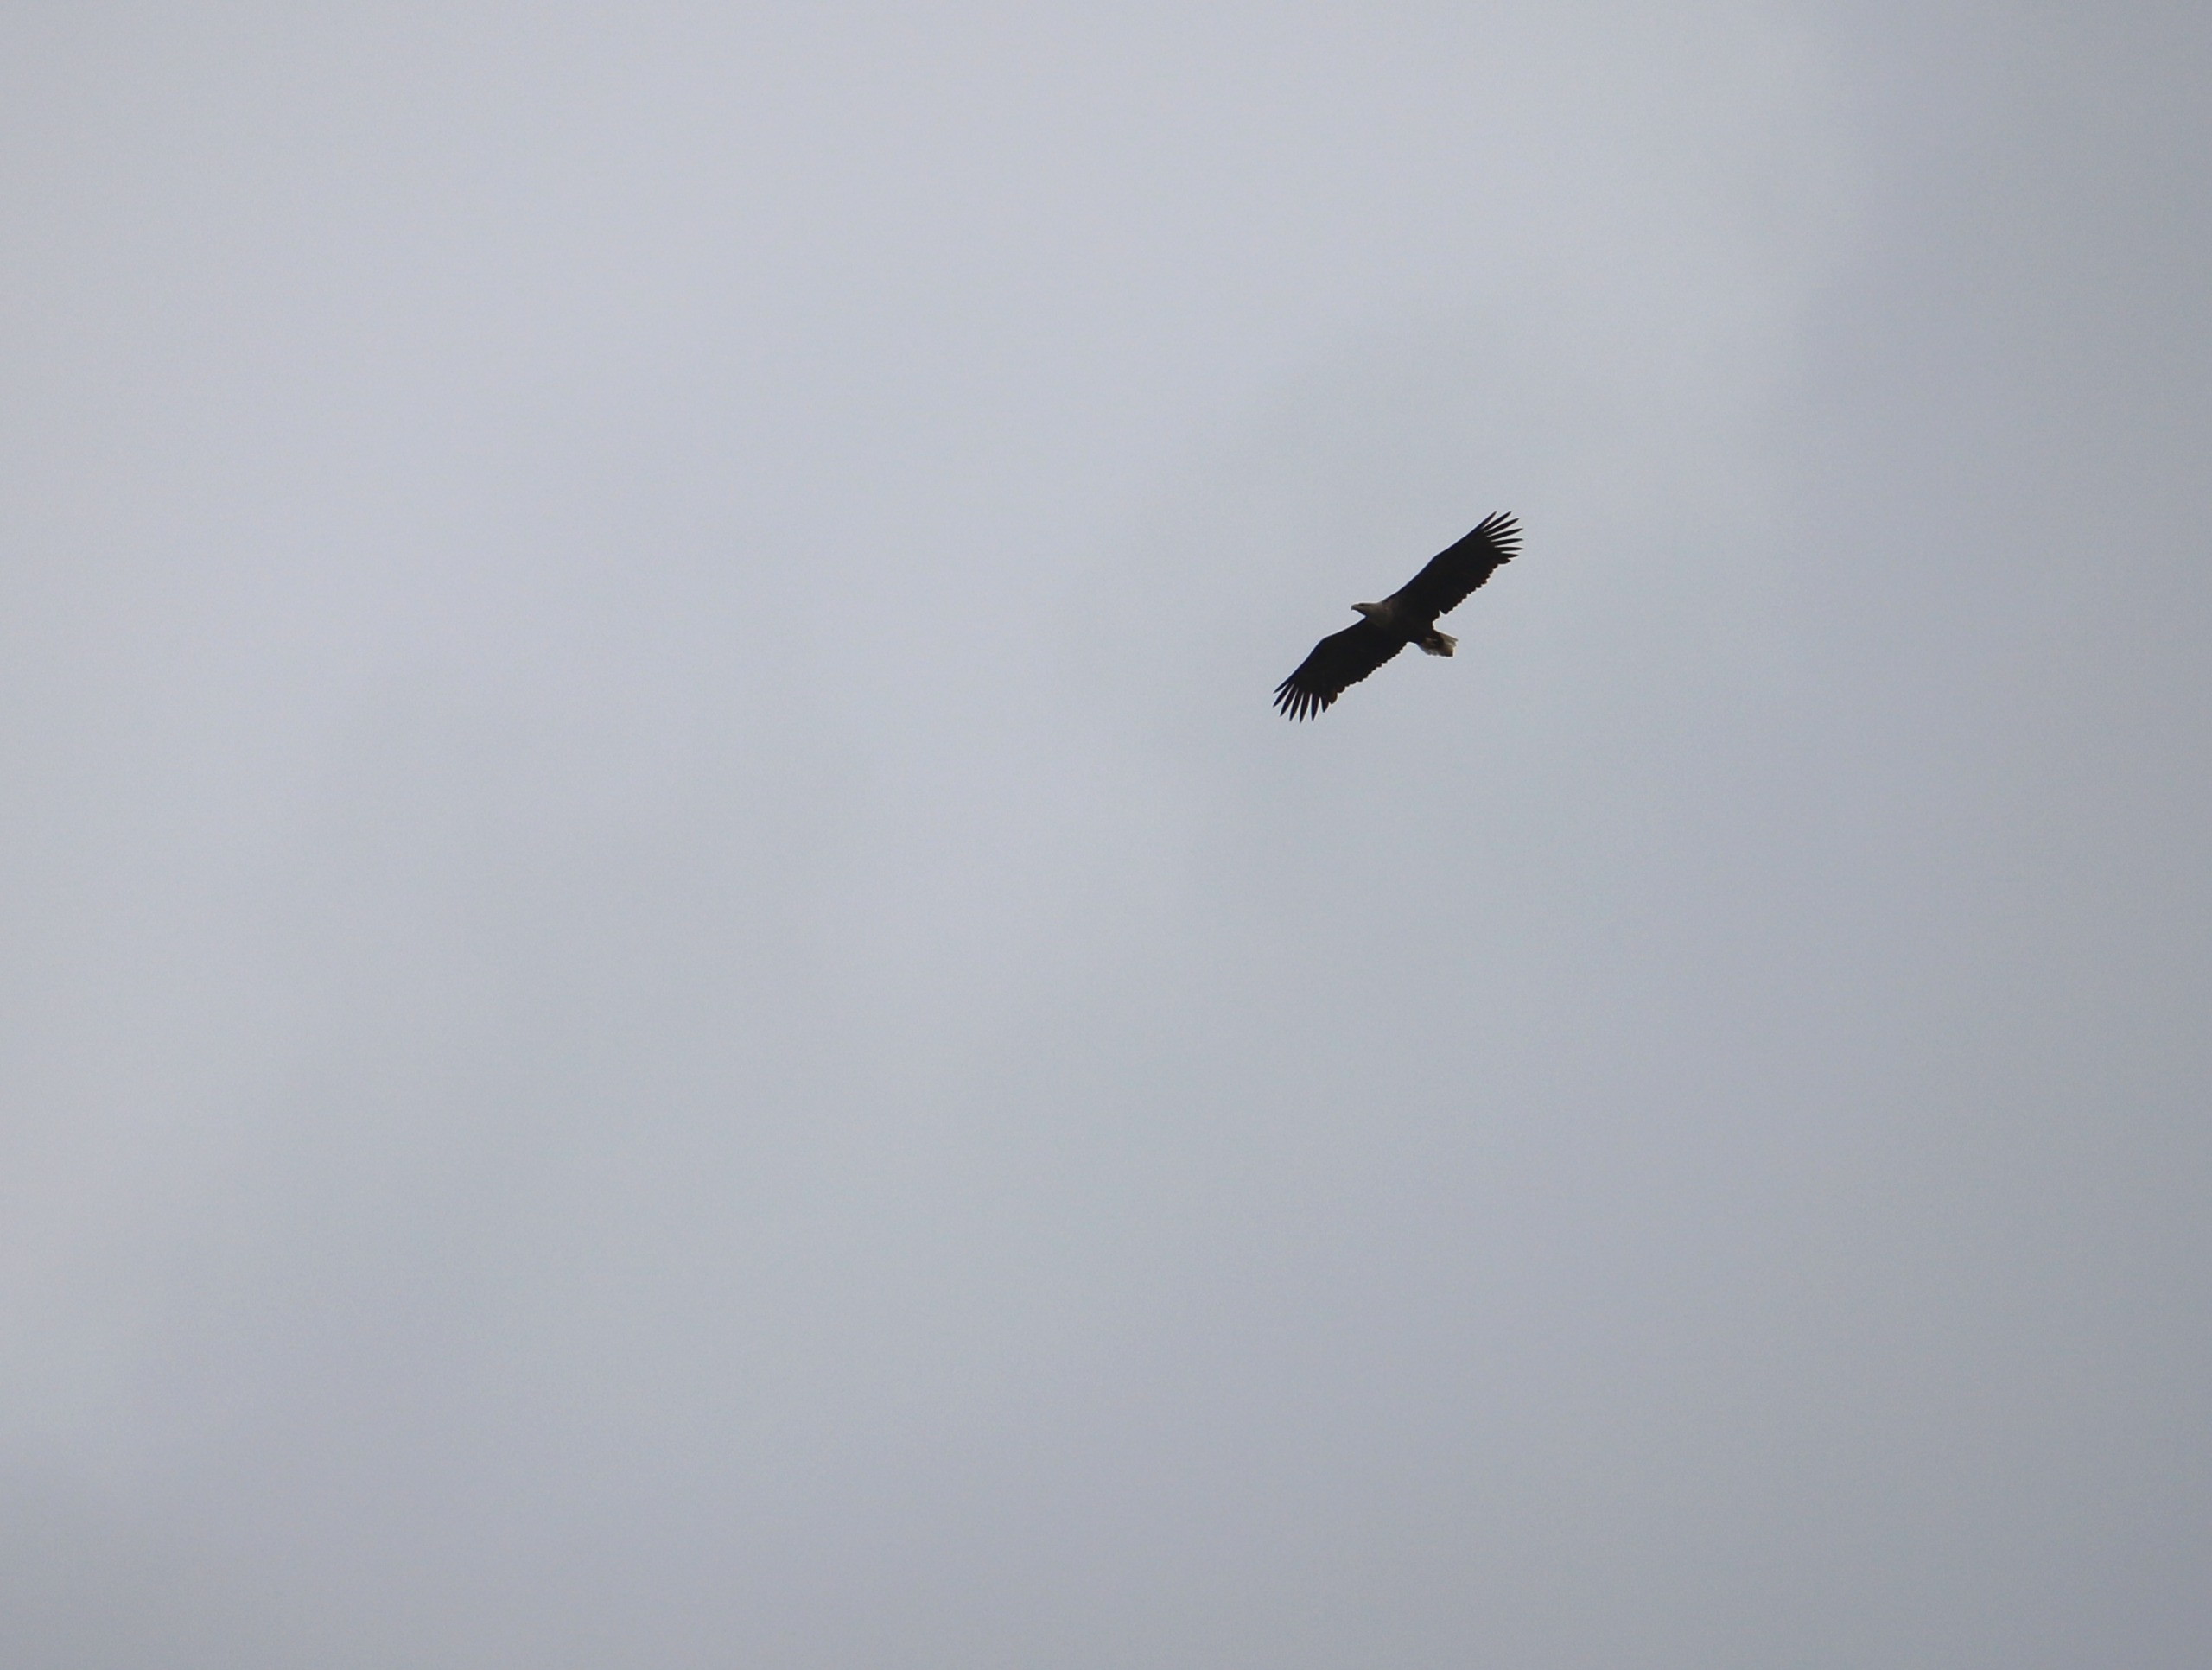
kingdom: Animalia
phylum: Chordata
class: Aves
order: Accipitriformes
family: Accipitridae
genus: Haliaeetus
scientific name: Haliaeetus albicilla
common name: Havørn
